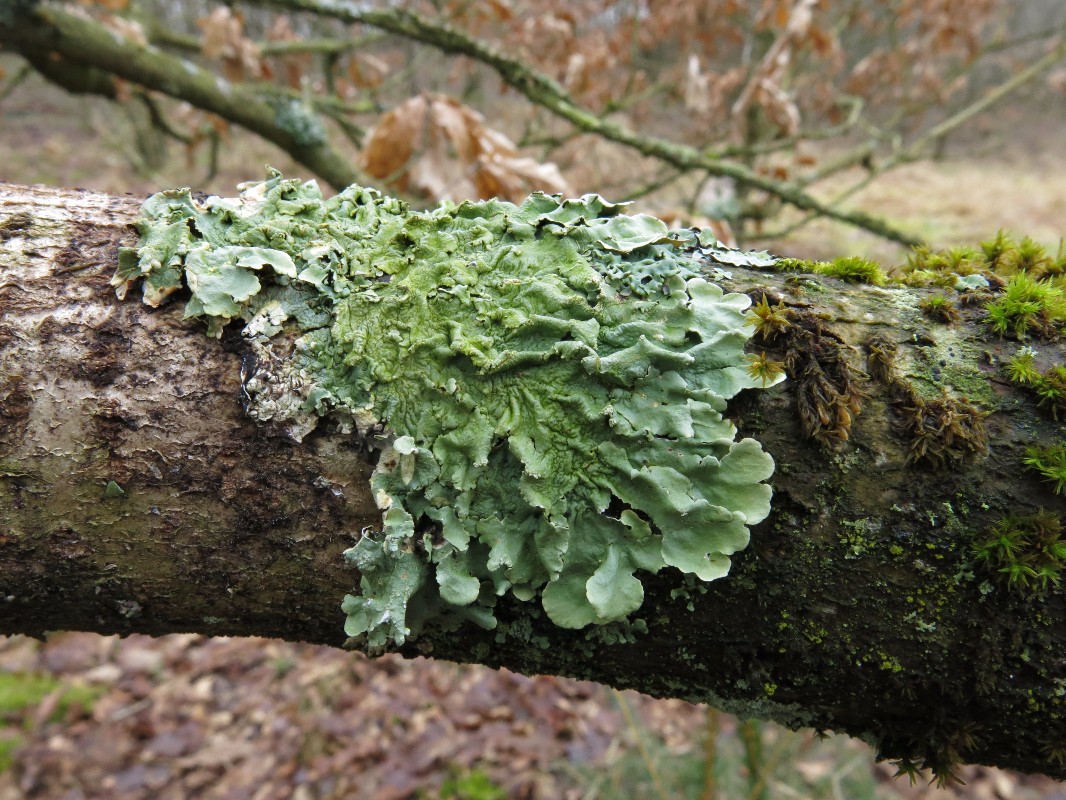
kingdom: Fungi
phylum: Ascomycota
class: Lecanoromycetes
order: Lecanorales
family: Parmeliaceae
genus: Flavoparmelia
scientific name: Flavoparmelia caperata
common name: gulgrøn skållav
